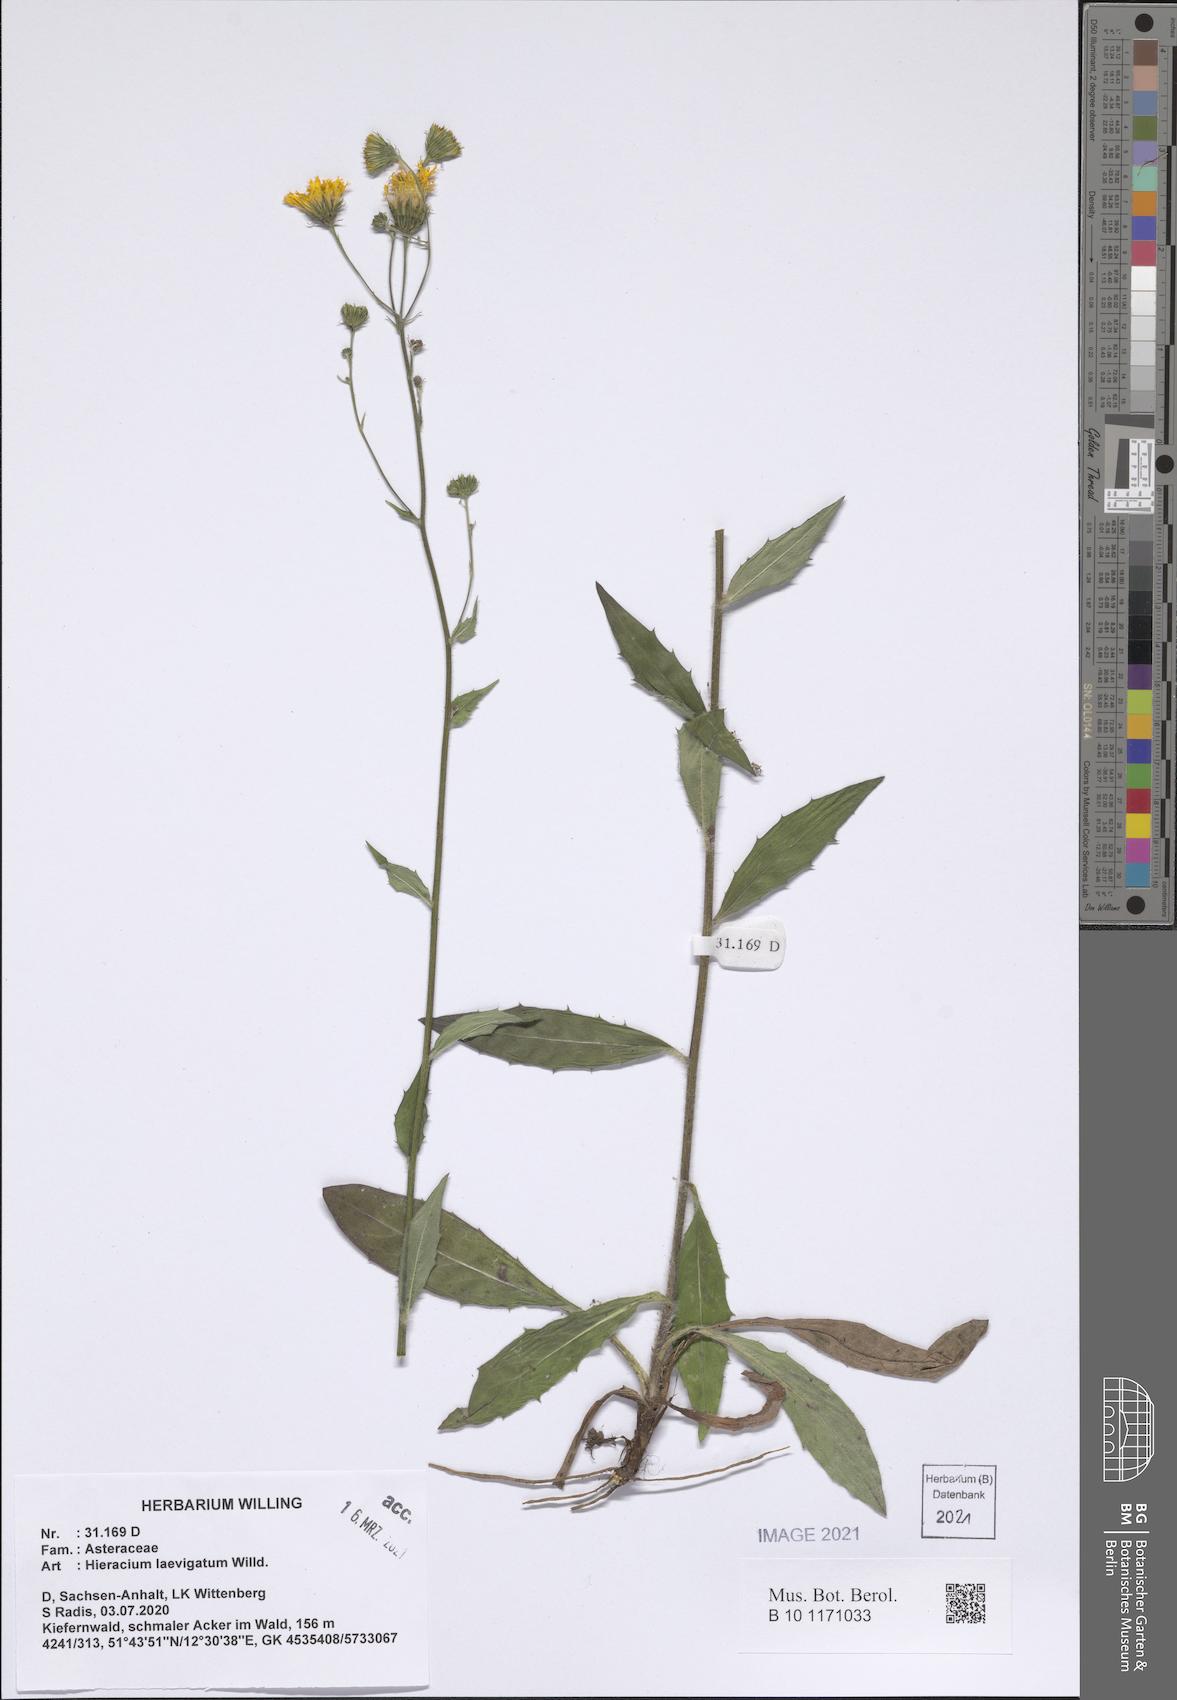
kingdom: Plantae
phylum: Tracheophyta
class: Magnoliopsida
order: Asterales
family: Asteraceae
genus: Hieracium
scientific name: Hieracium laevigatum
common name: Smooth hawkweed
